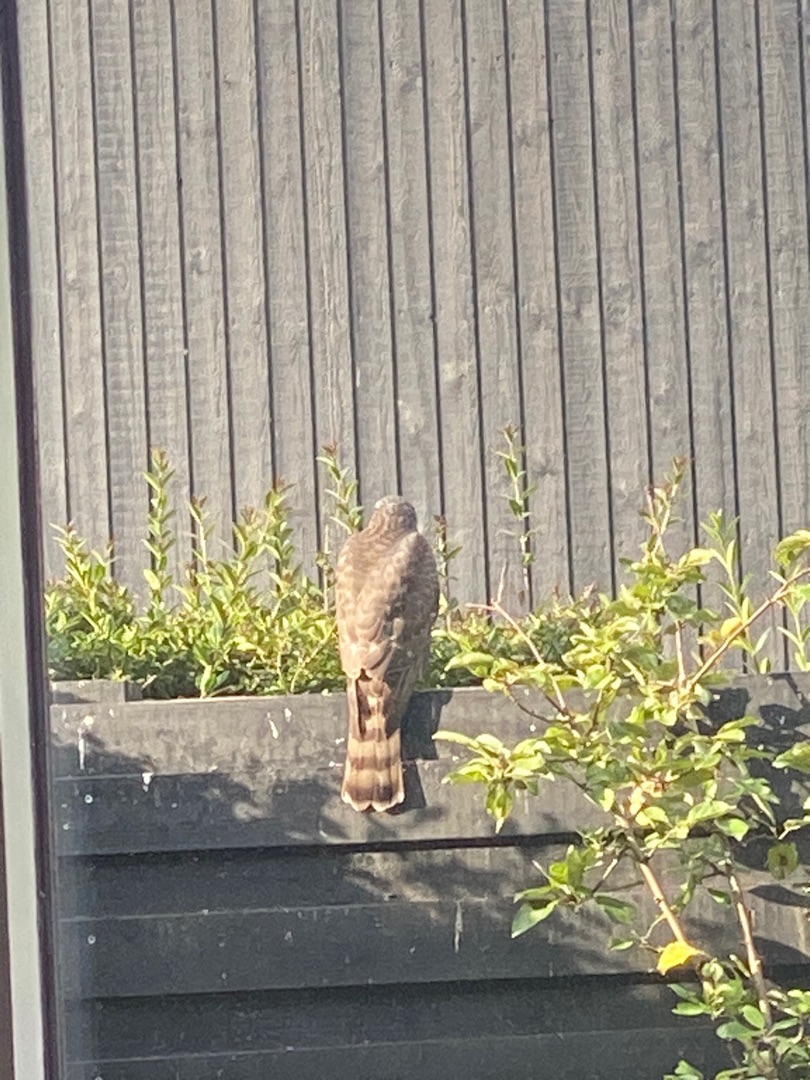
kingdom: Animalia
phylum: Chordata
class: Aves
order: Accipitriformes
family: Accipitridae
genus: Accipiter
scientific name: Accipiter nisus
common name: Spurvehøg
